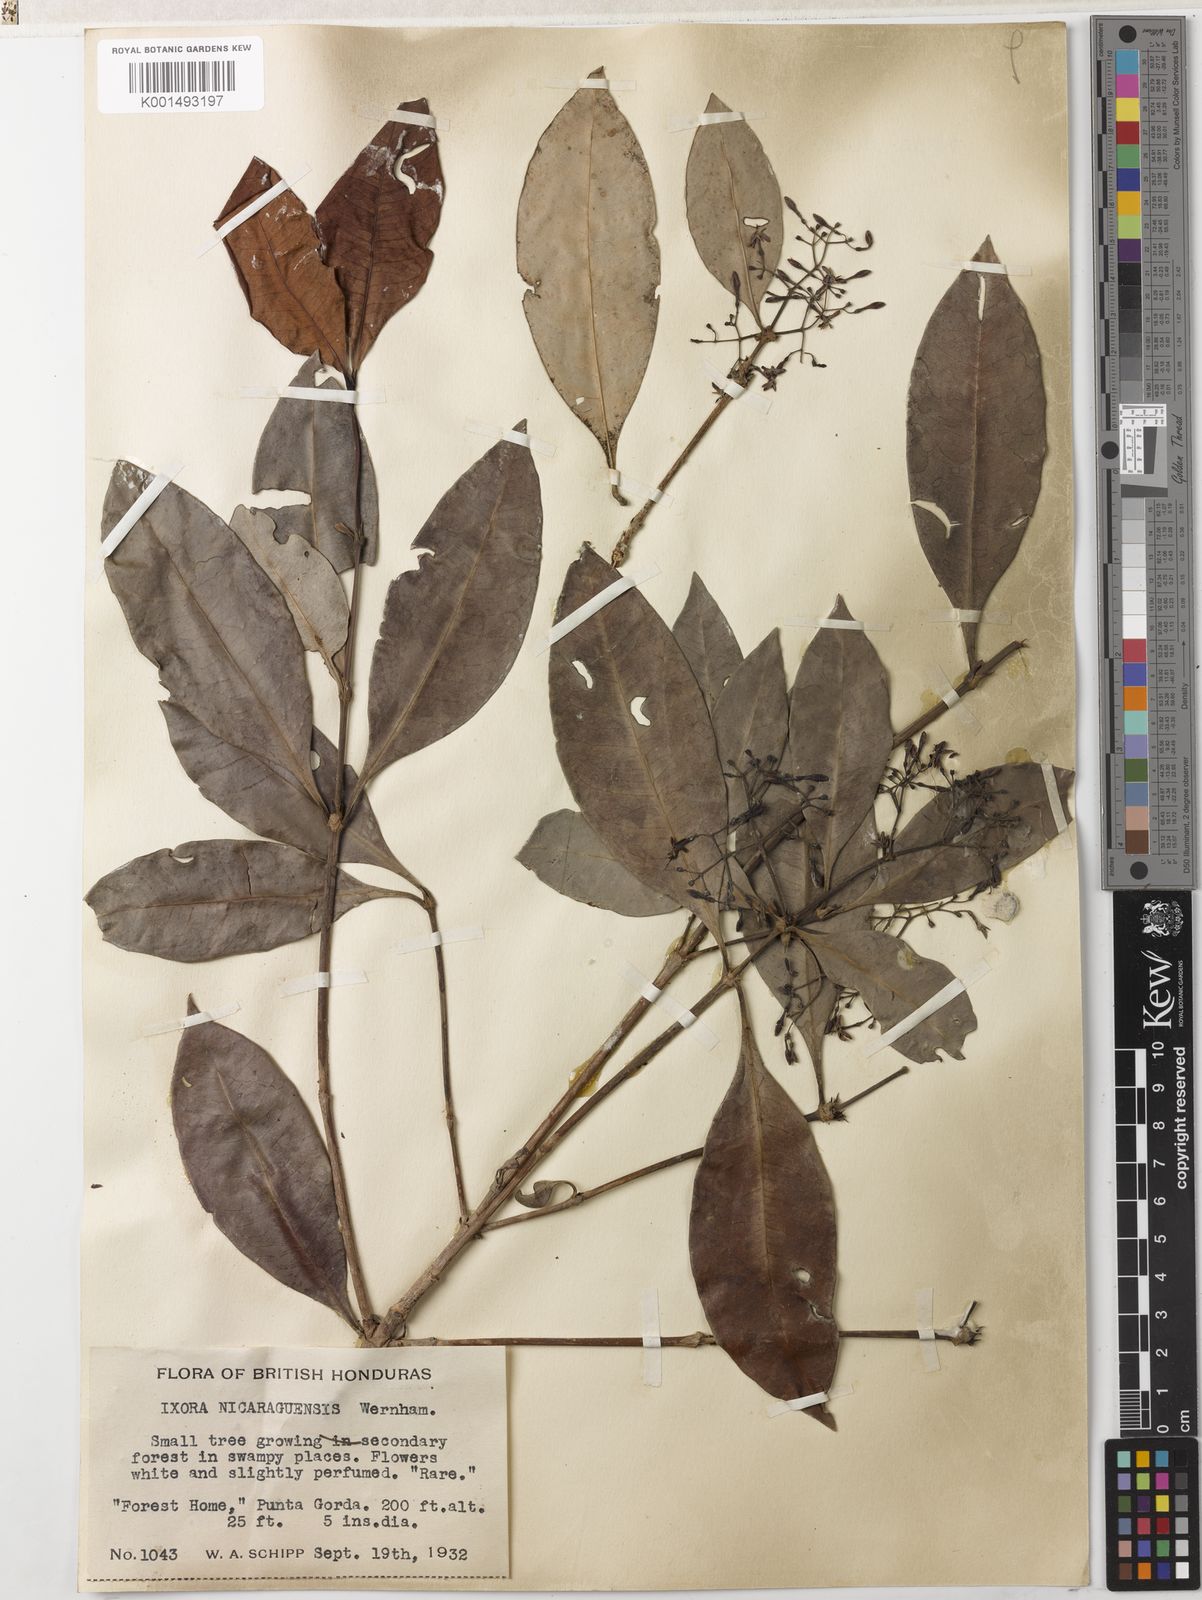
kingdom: Plantae
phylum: Tracheophyta
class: Magnoliopsida
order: Gentianales
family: Rubiaceae
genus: Ixora
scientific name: Ixora nicaraguensis
